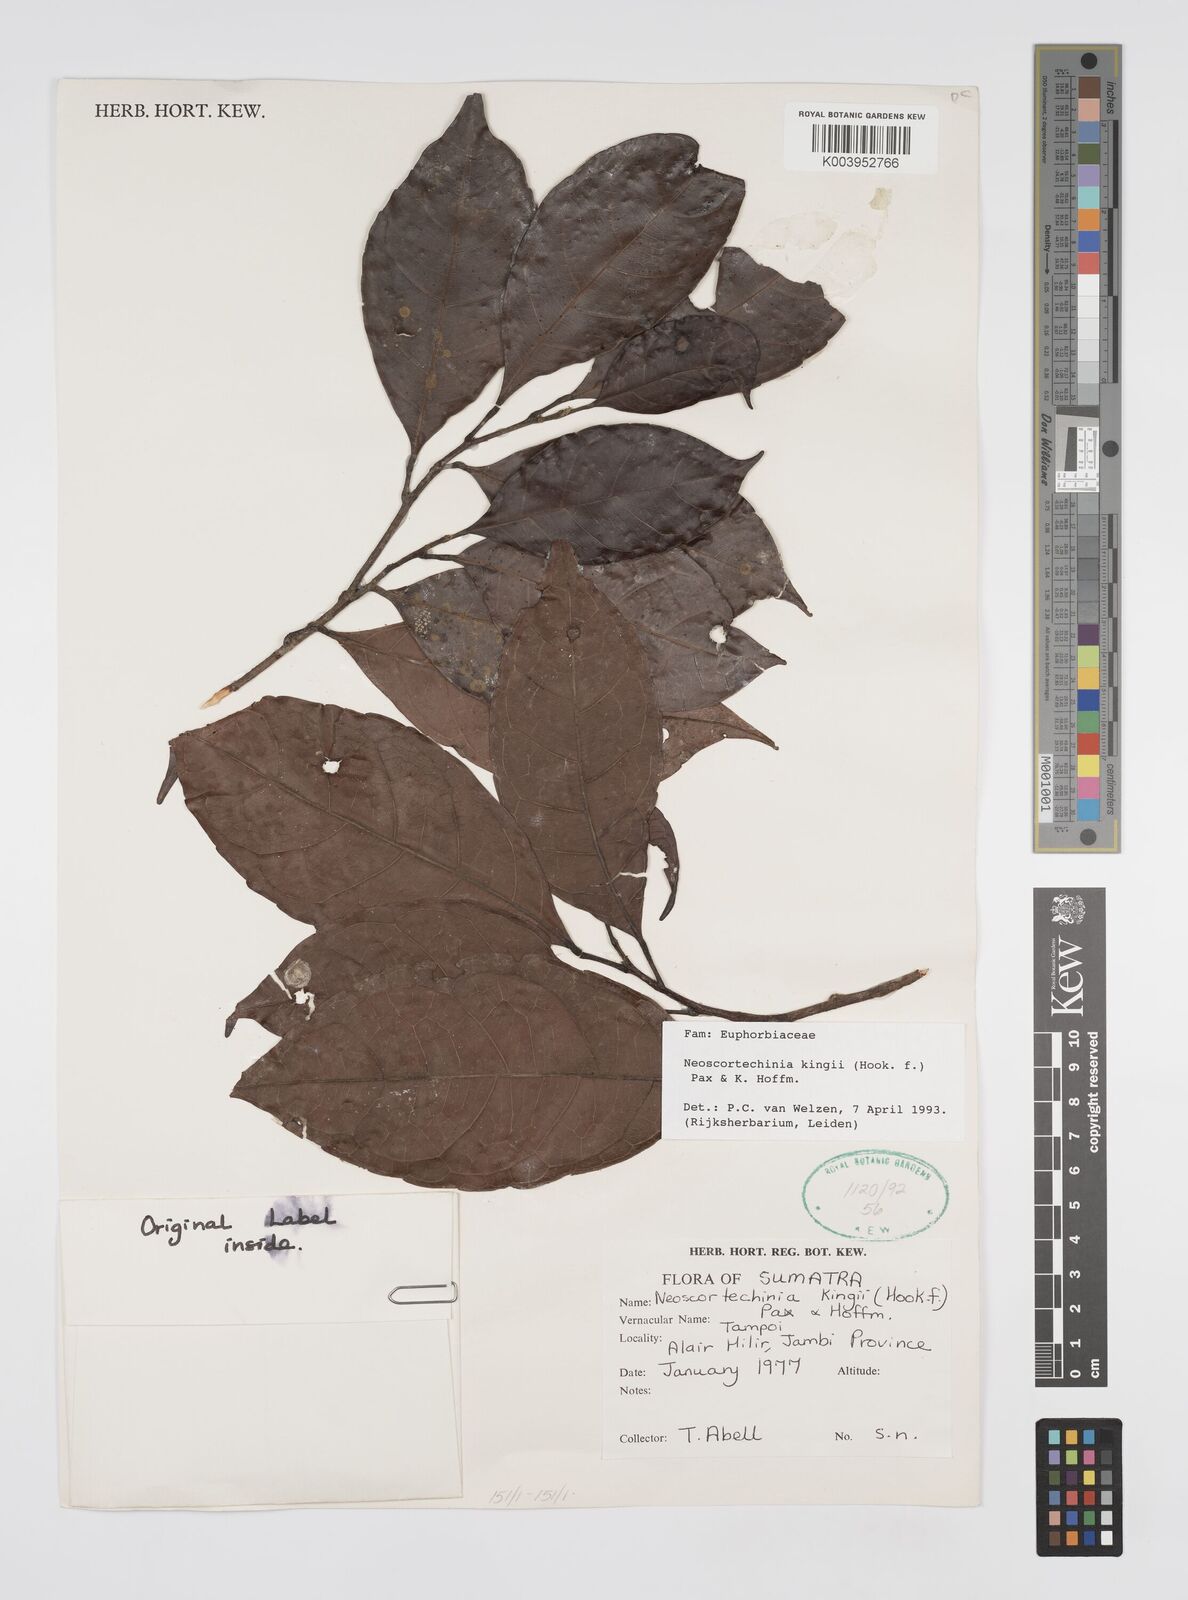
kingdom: Plantae
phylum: Tracheophyta
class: Magnoliopsida
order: Malpighiales
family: Euphorbiaceae
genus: Neoscortechinia
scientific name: Neoscortechinia kingii
